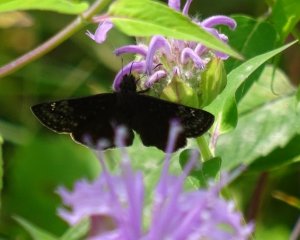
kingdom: Animalia
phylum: Arthropoda
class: Insecta
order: Lepidoptera
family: Hesperiidae
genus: Gesta
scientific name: Gesta
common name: Wild Indigo Duskywing
